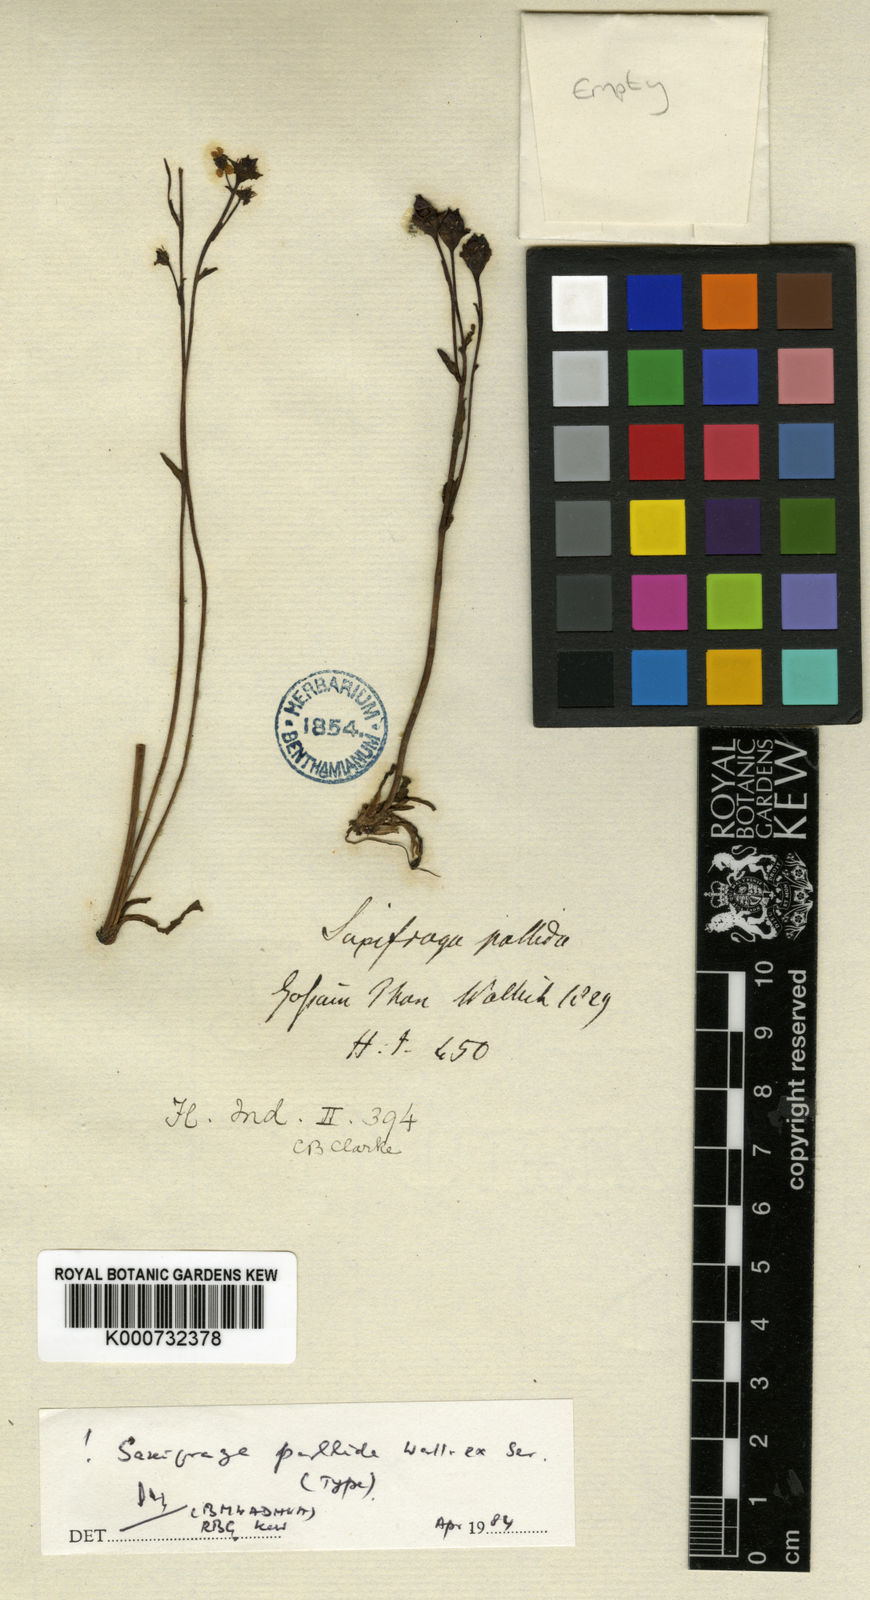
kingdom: Plantae
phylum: Tracheophyta
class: Magnoliopsida
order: Saxifragales
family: Saxifragaceae
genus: Micranthes
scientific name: Micranthes pallida
